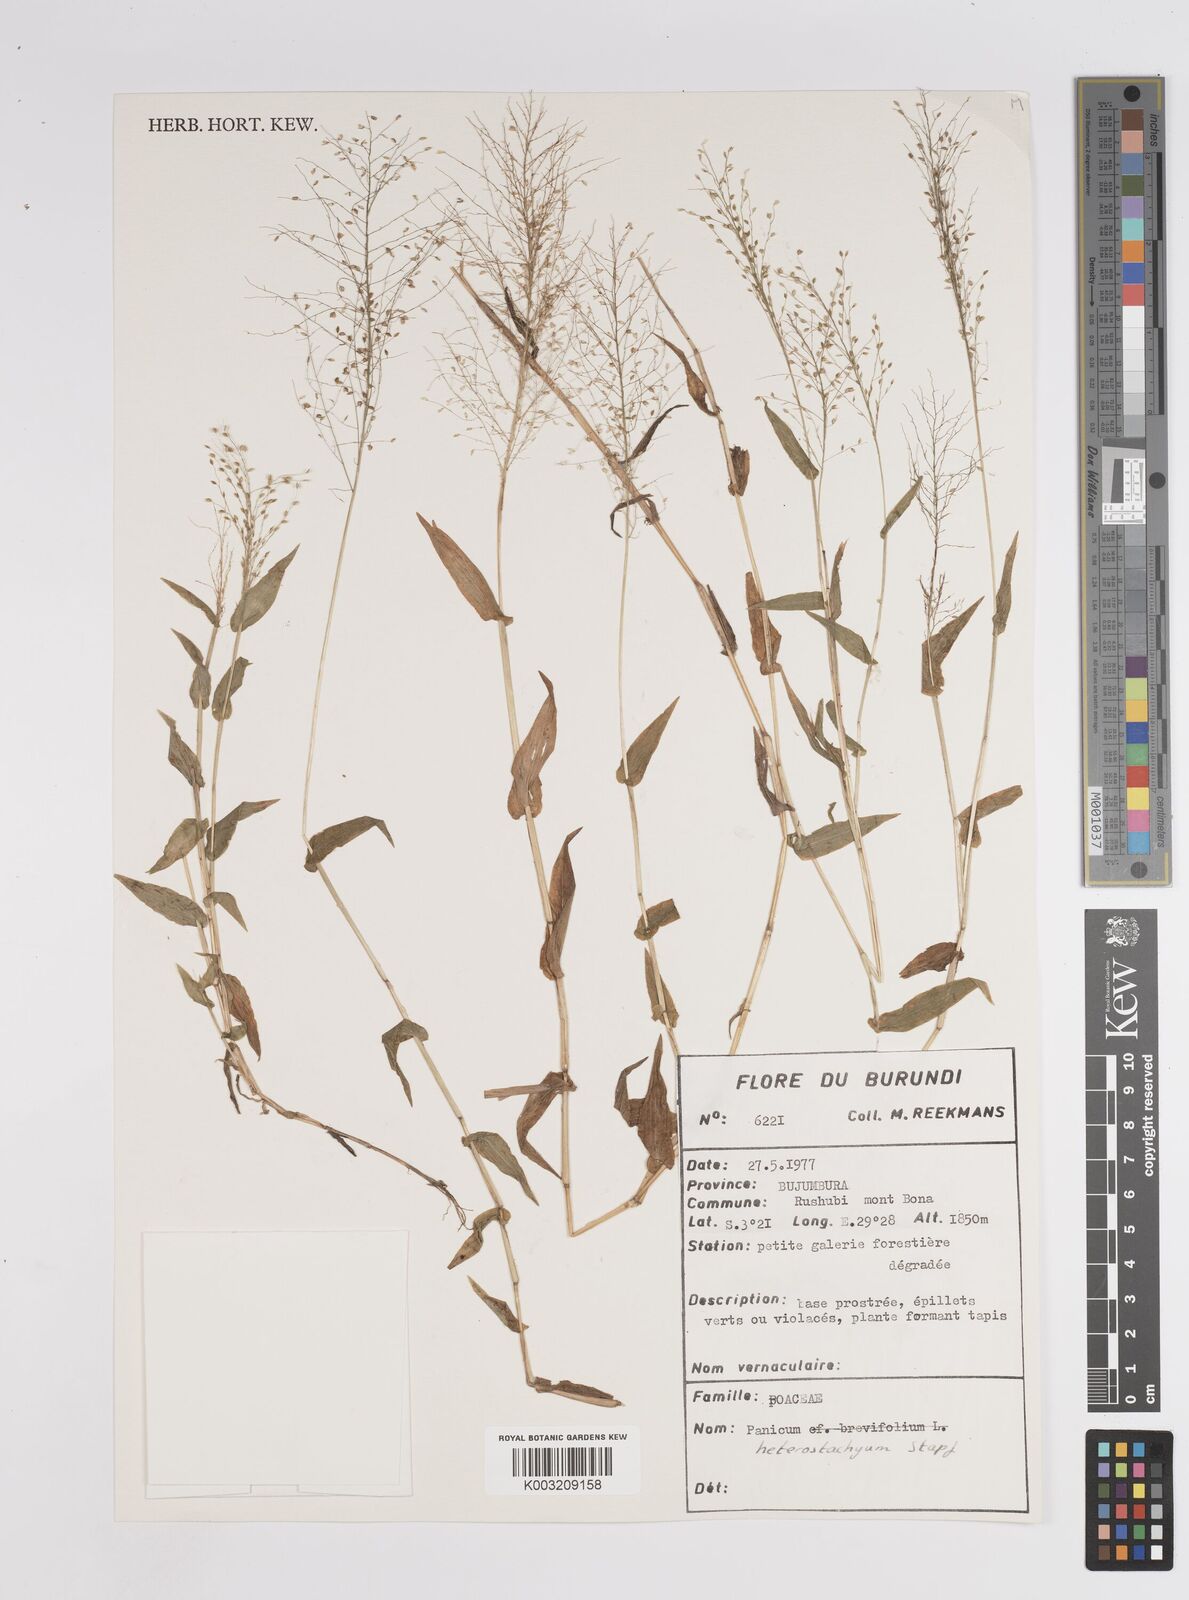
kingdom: Plantae
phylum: Tracheophyta
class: Liliopsida
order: Poales
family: Poaceae
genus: Pseudechinolaena
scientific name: Pseudechinolaena polystachya
